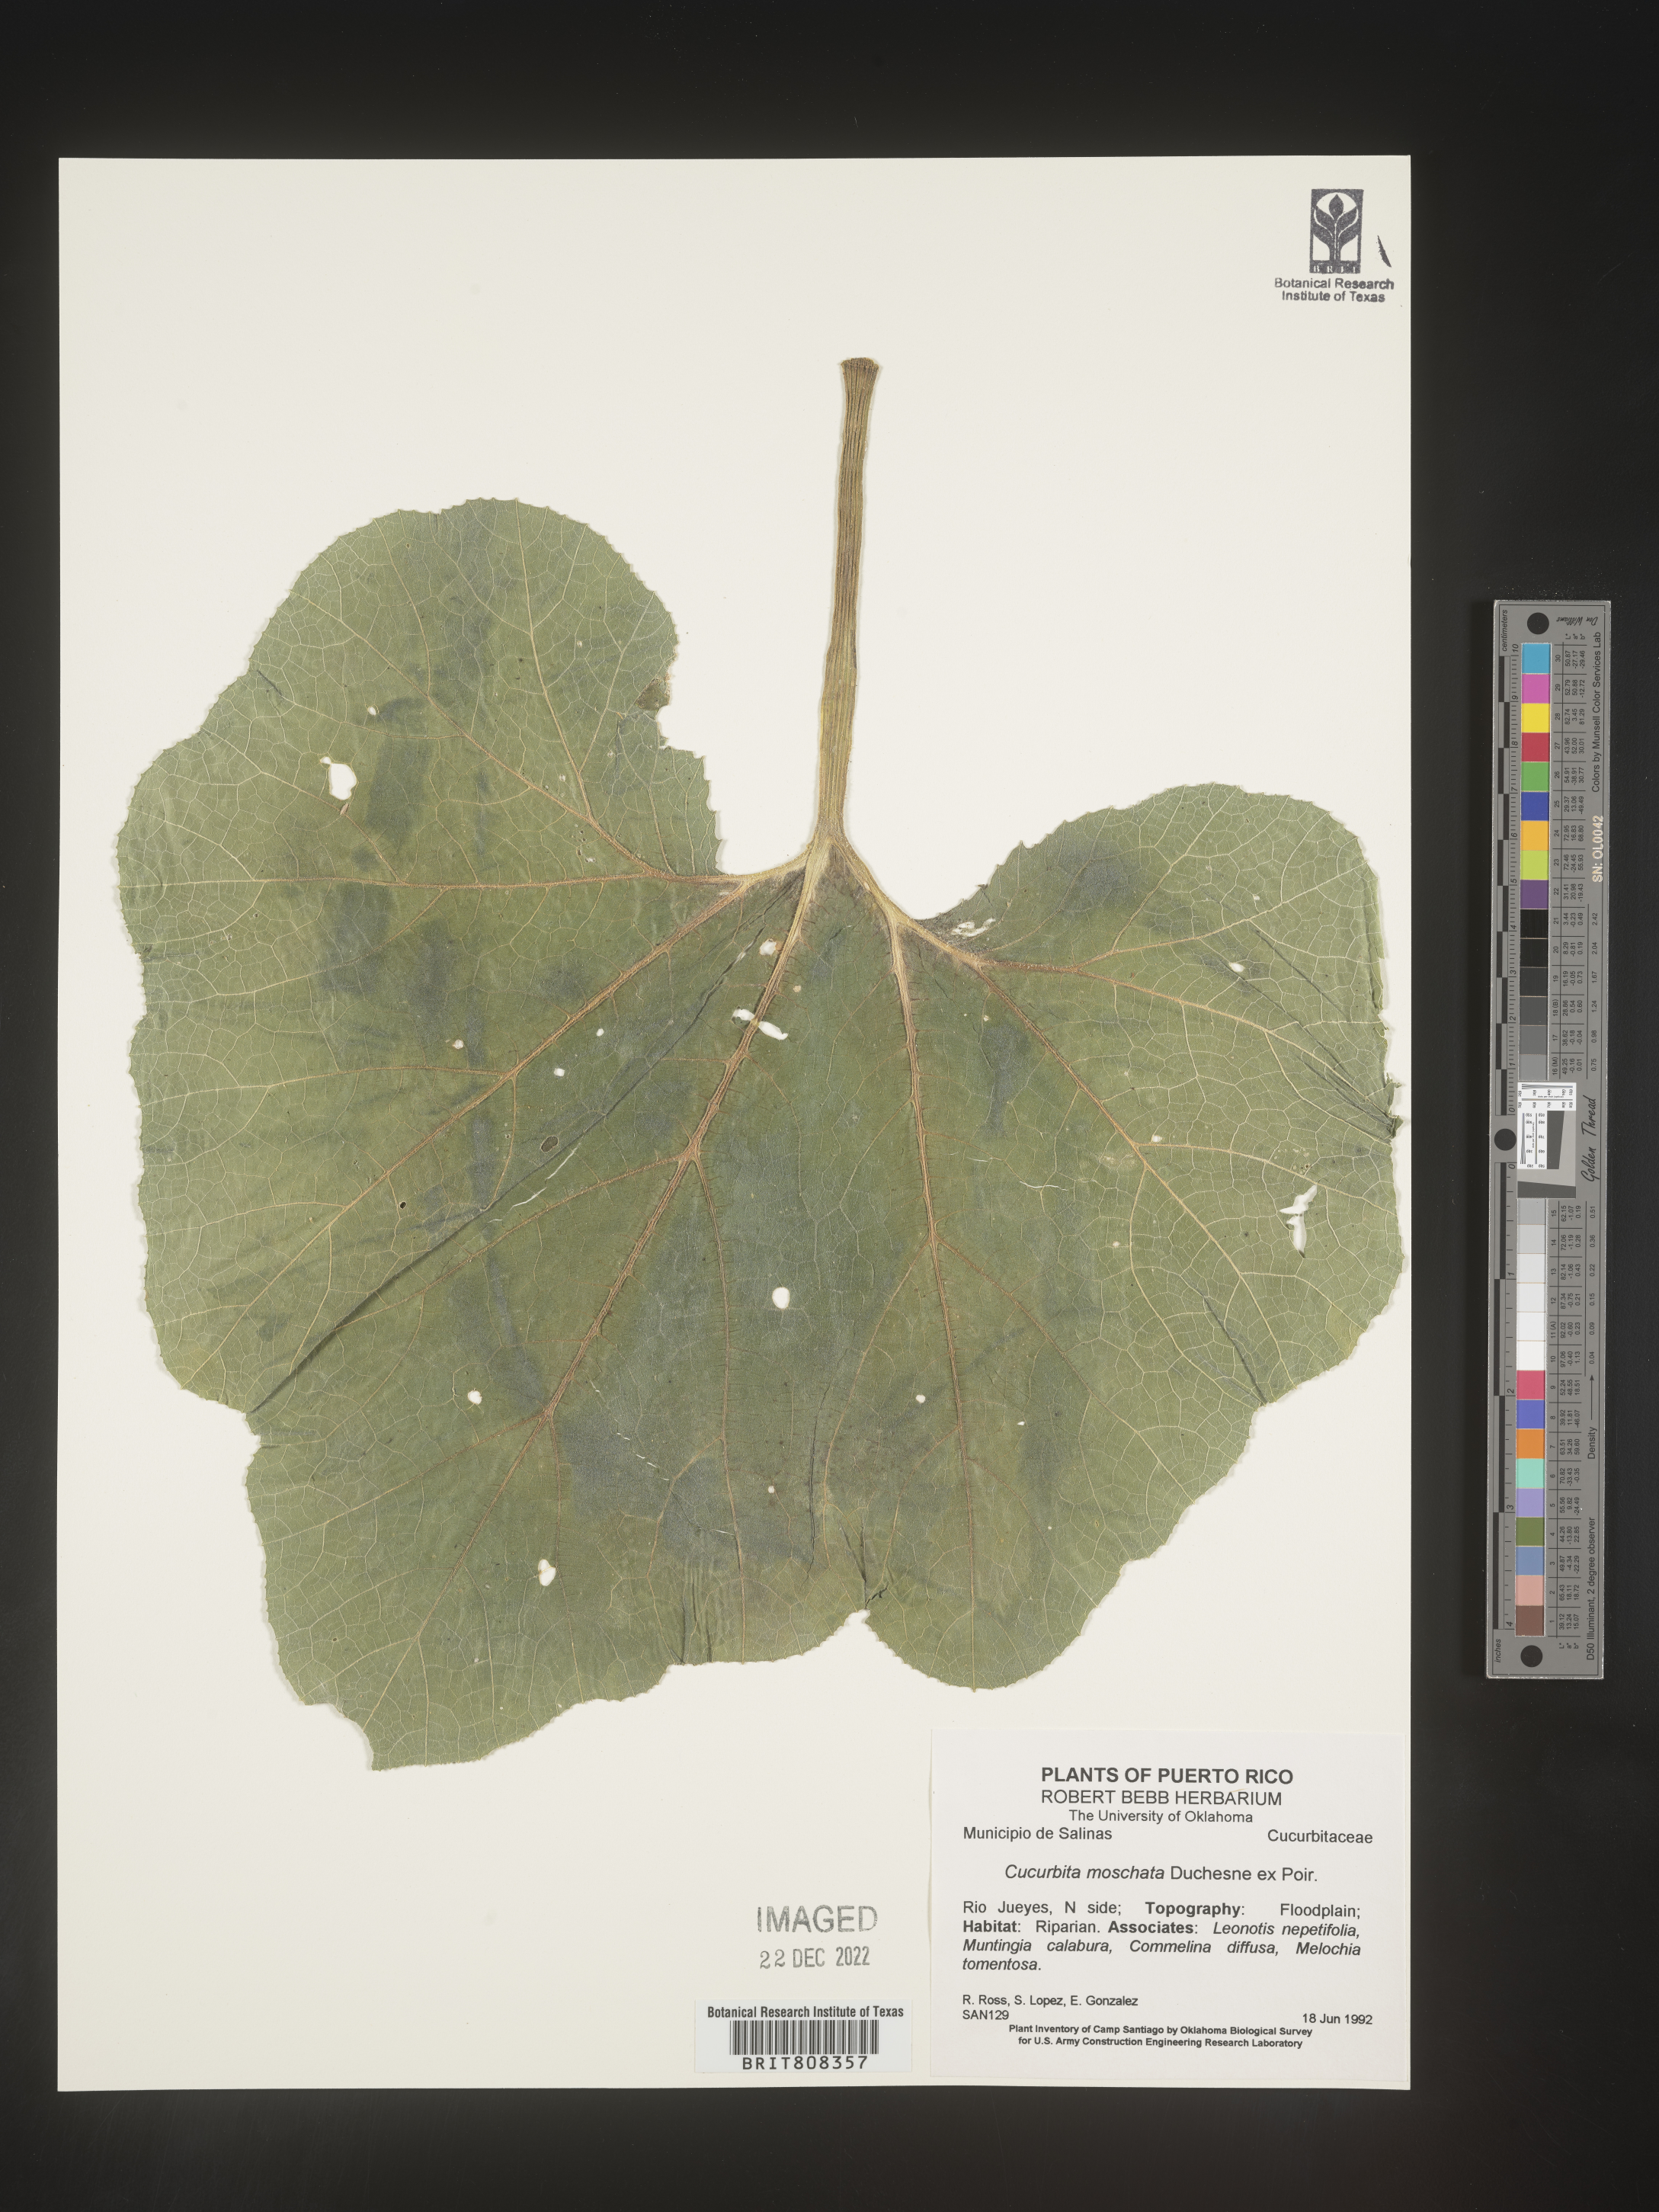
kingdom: Plantae
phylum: Tracheophyta
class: Magnoliopsida
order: Cucurbitales
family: Cucurbitaceae
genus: Cucurbita
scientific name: Cucurbita
